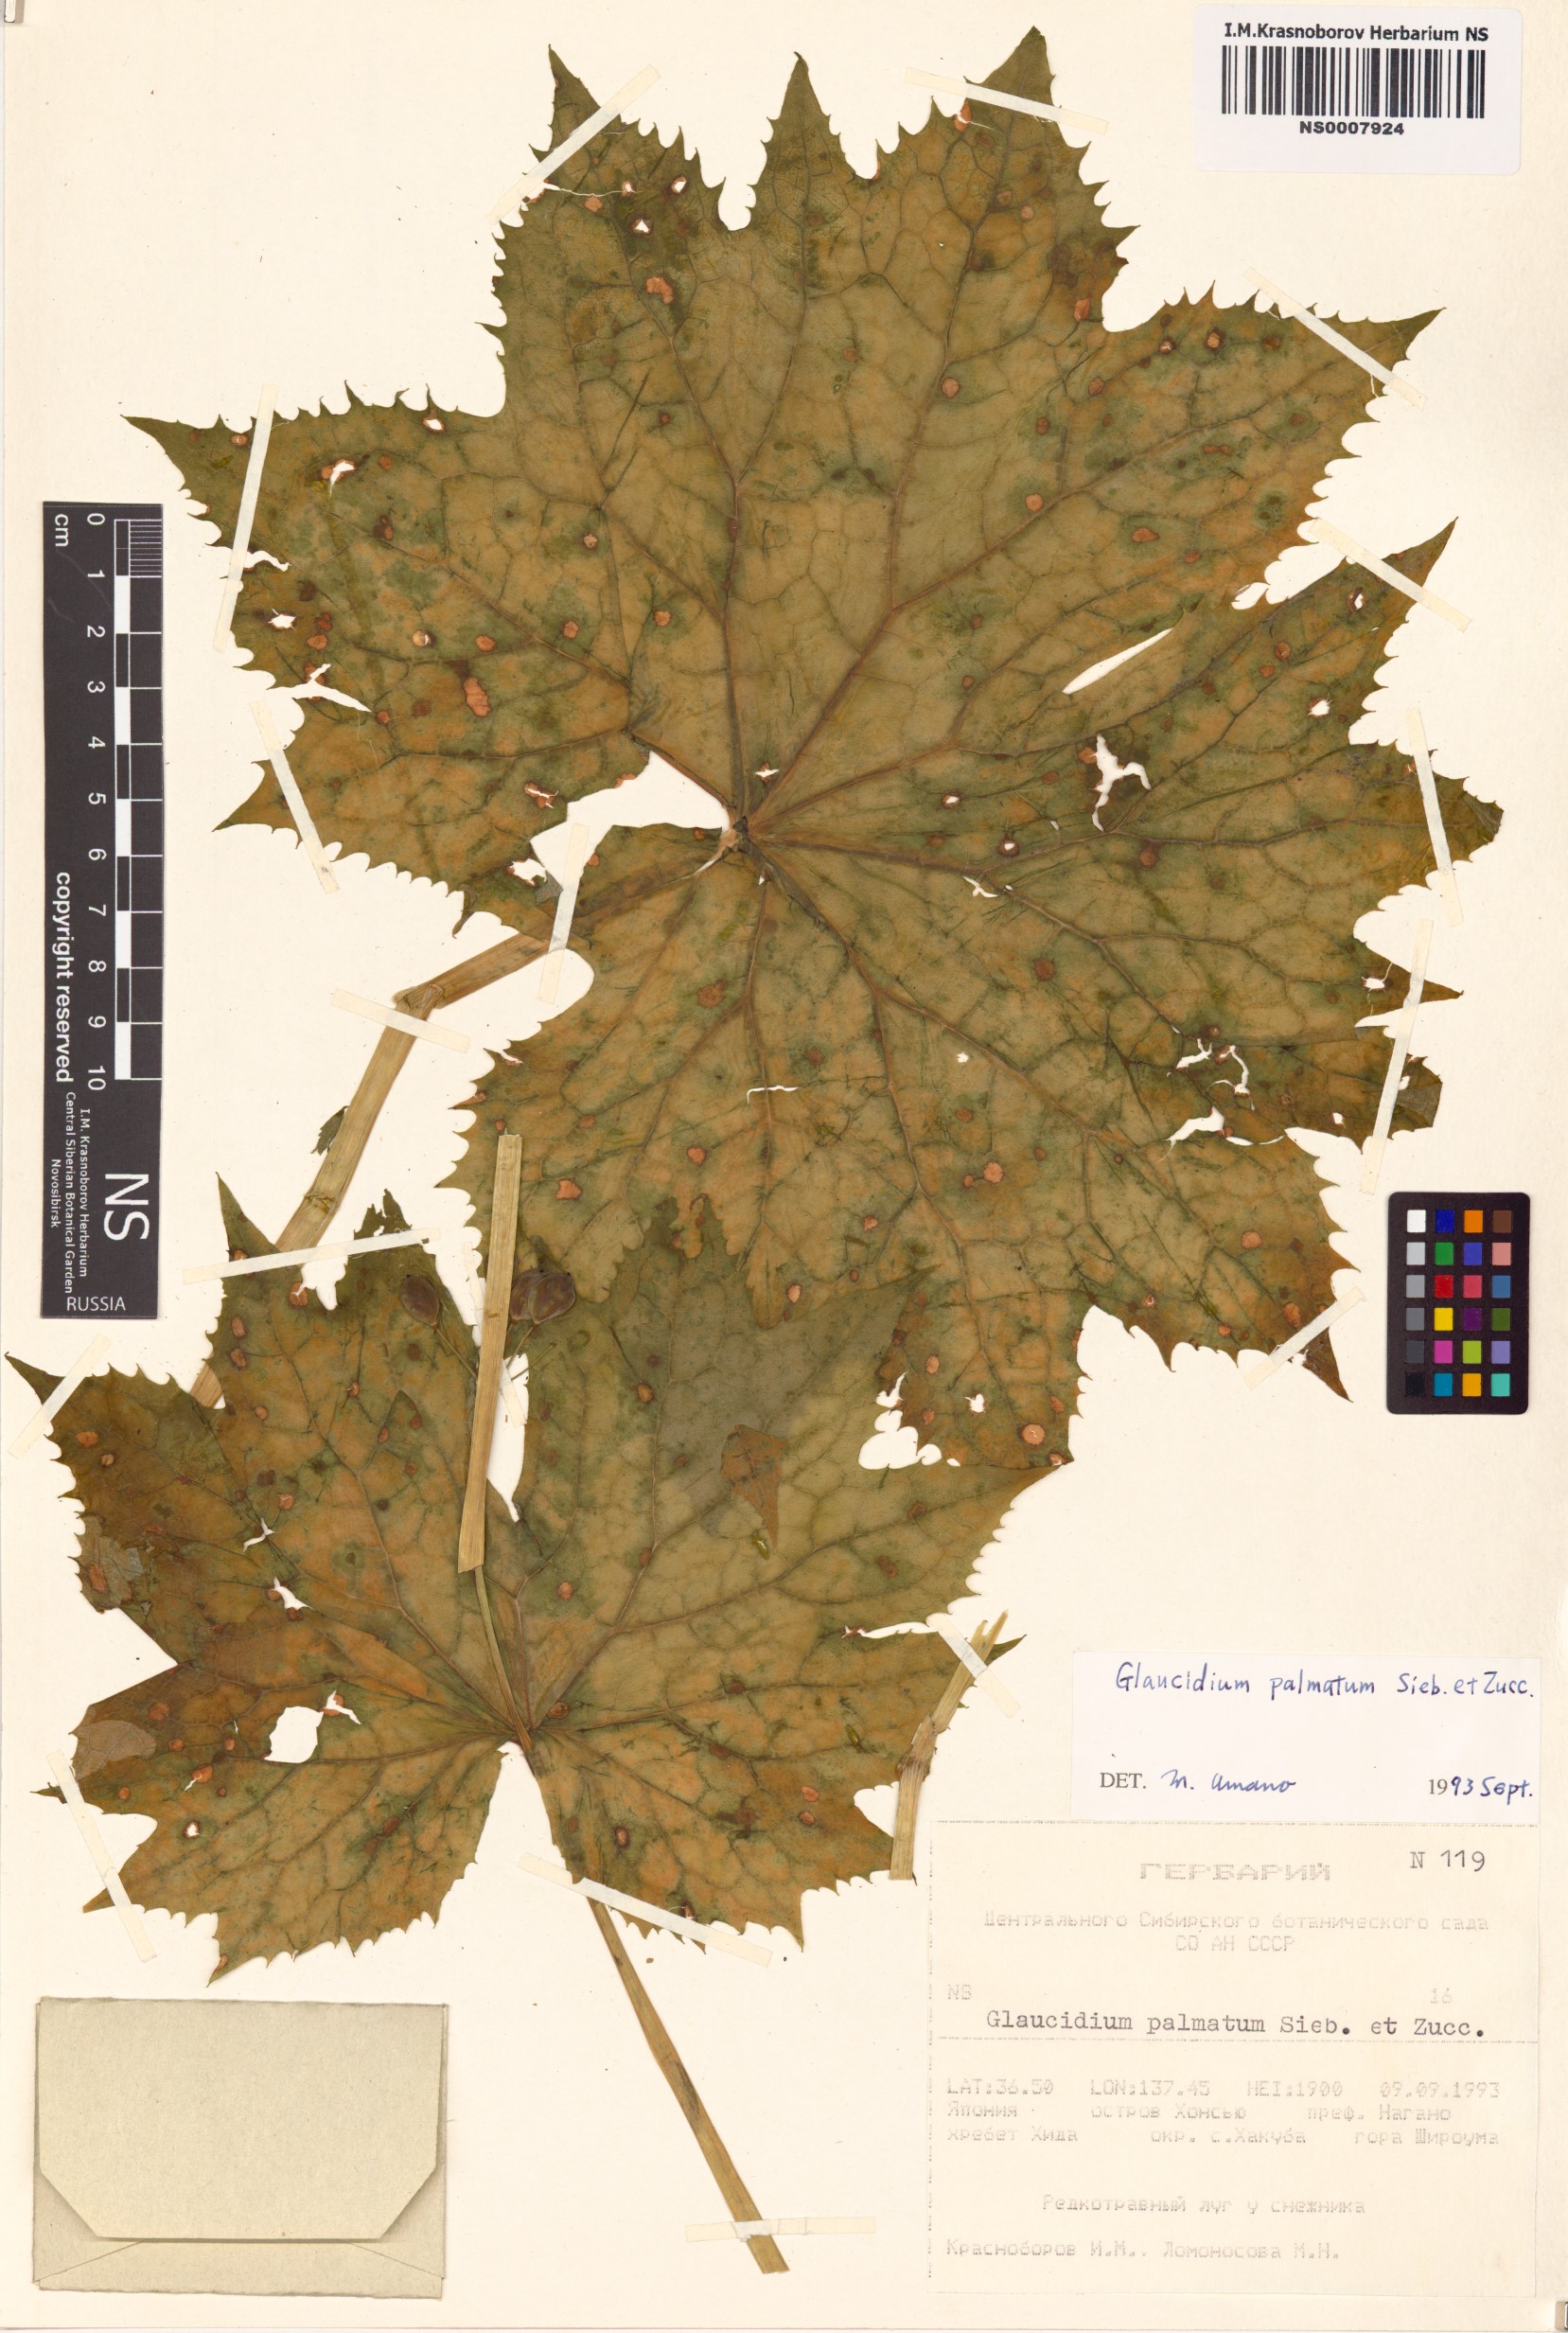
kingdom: Plantae
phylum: Tracheophyta
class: Magnoliopsida
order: Ranunculales
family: Ranunculaceae
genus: Glaucidium
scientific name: Glaucidium palmatum
